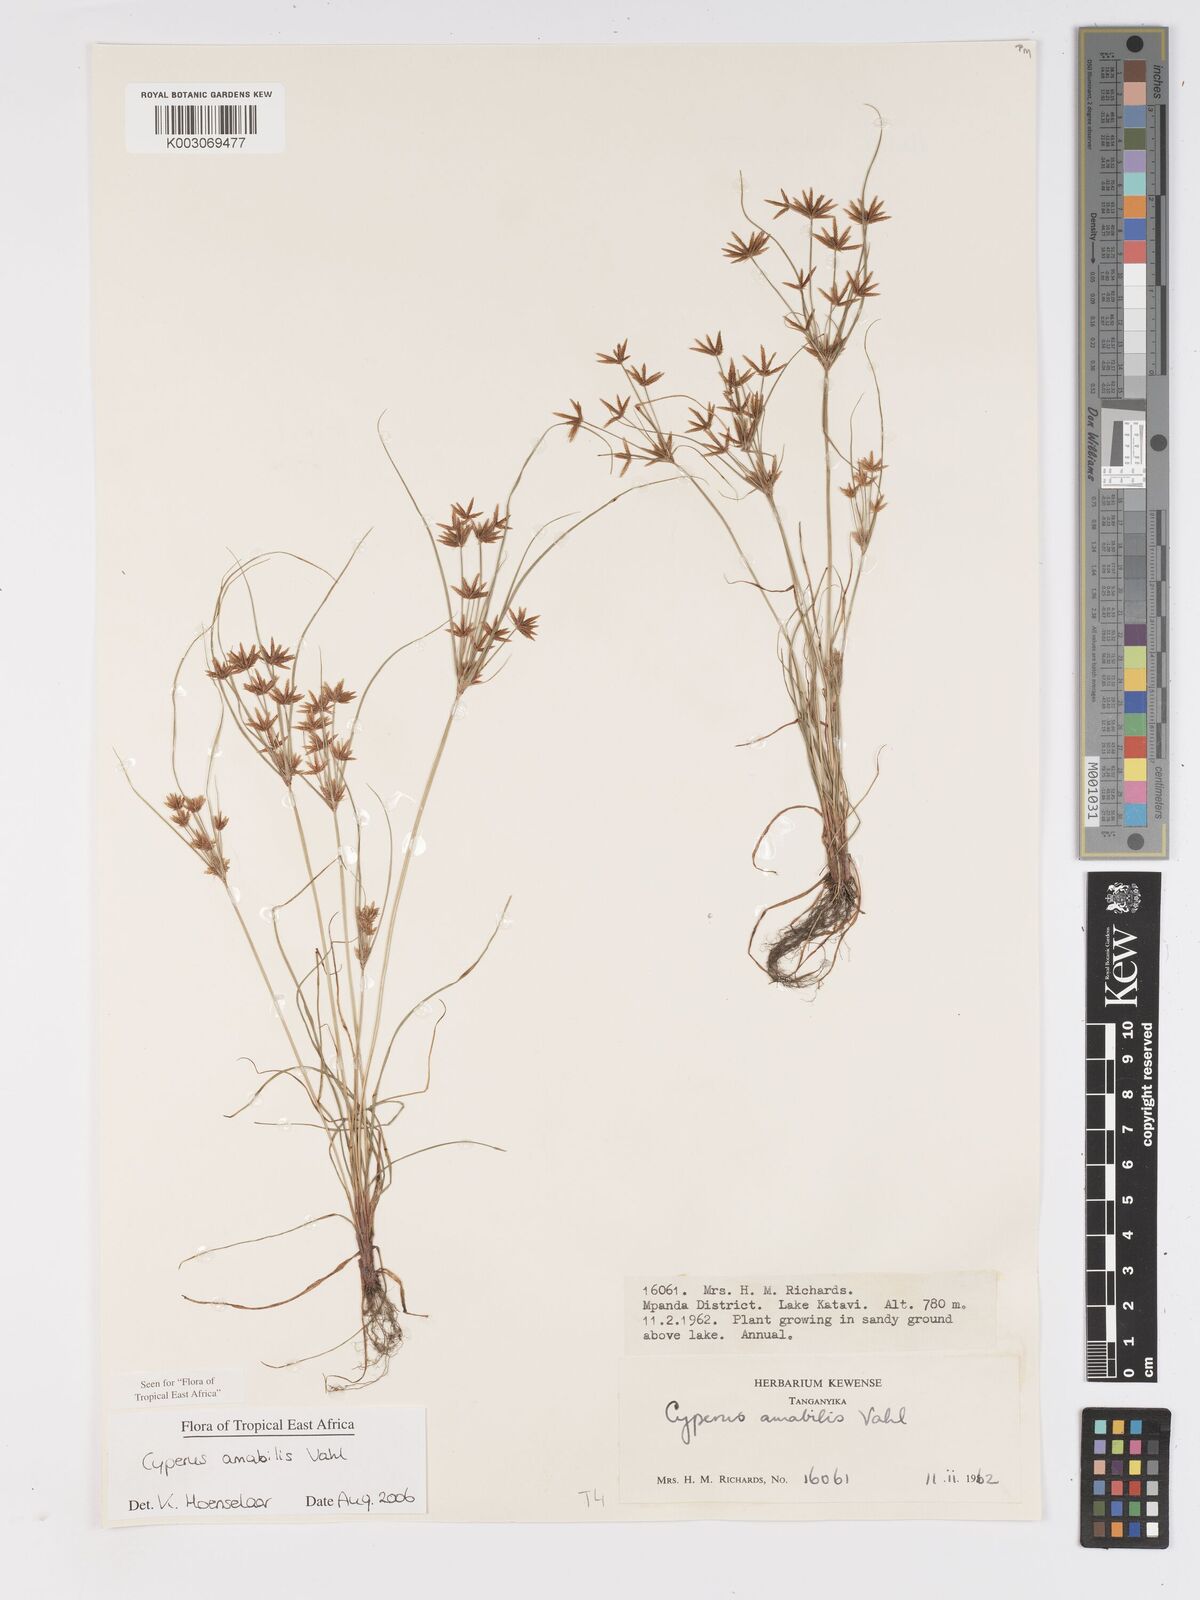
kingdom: Plantae
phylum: Tracheophyta
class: Liliopsida
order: Poales
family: Cyperaceae
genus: Cyperus
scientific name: Cyperus amabilis
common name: Foothill flat sedge
